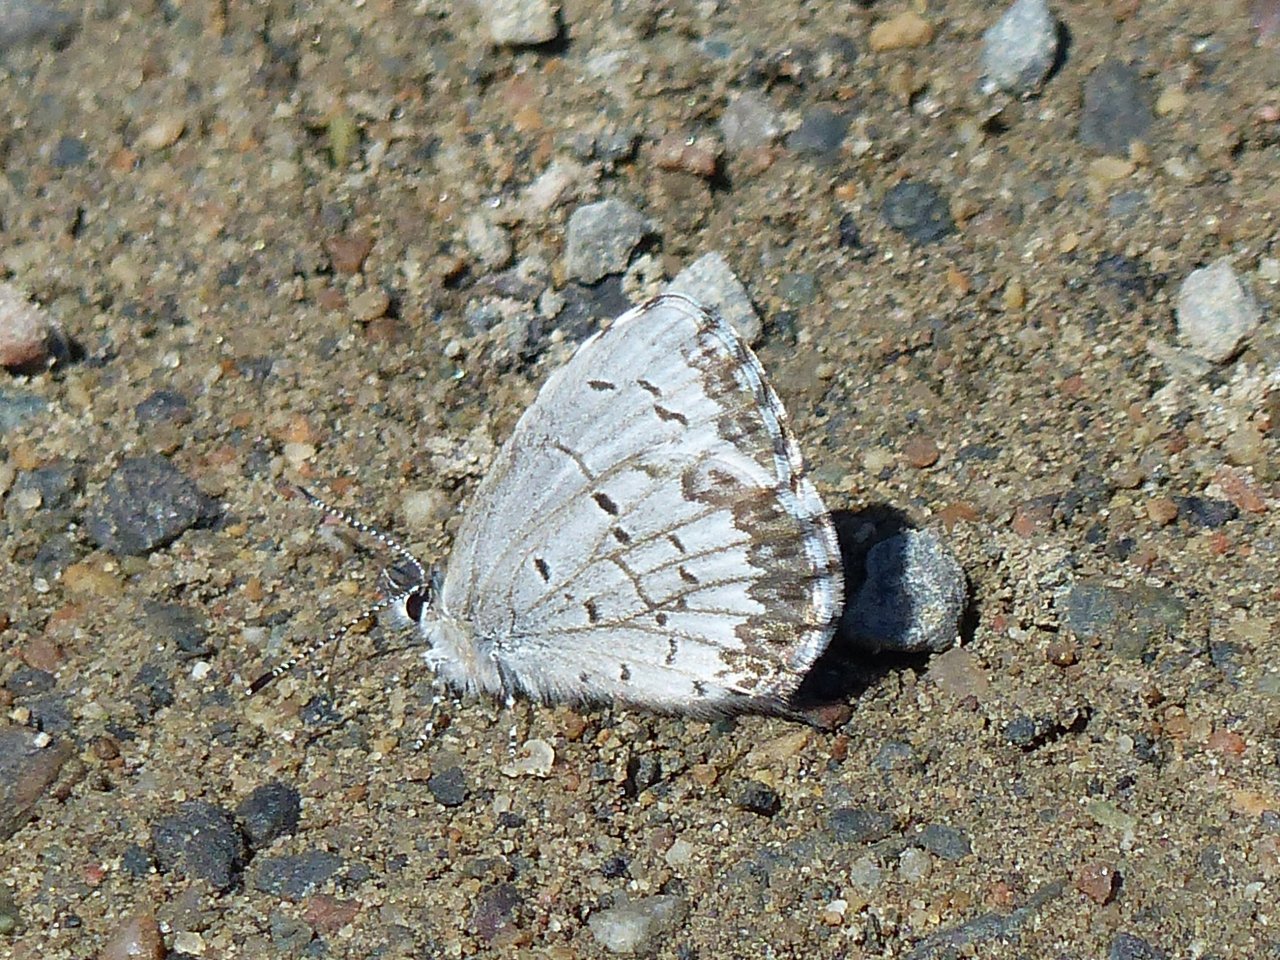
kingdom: Animalia
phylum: Arthropoda
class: Insecta
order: Lepidoptera
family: Lycaenidae
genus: Celastrina
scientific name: Celastrina lucia
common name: Northern Spring Azure
